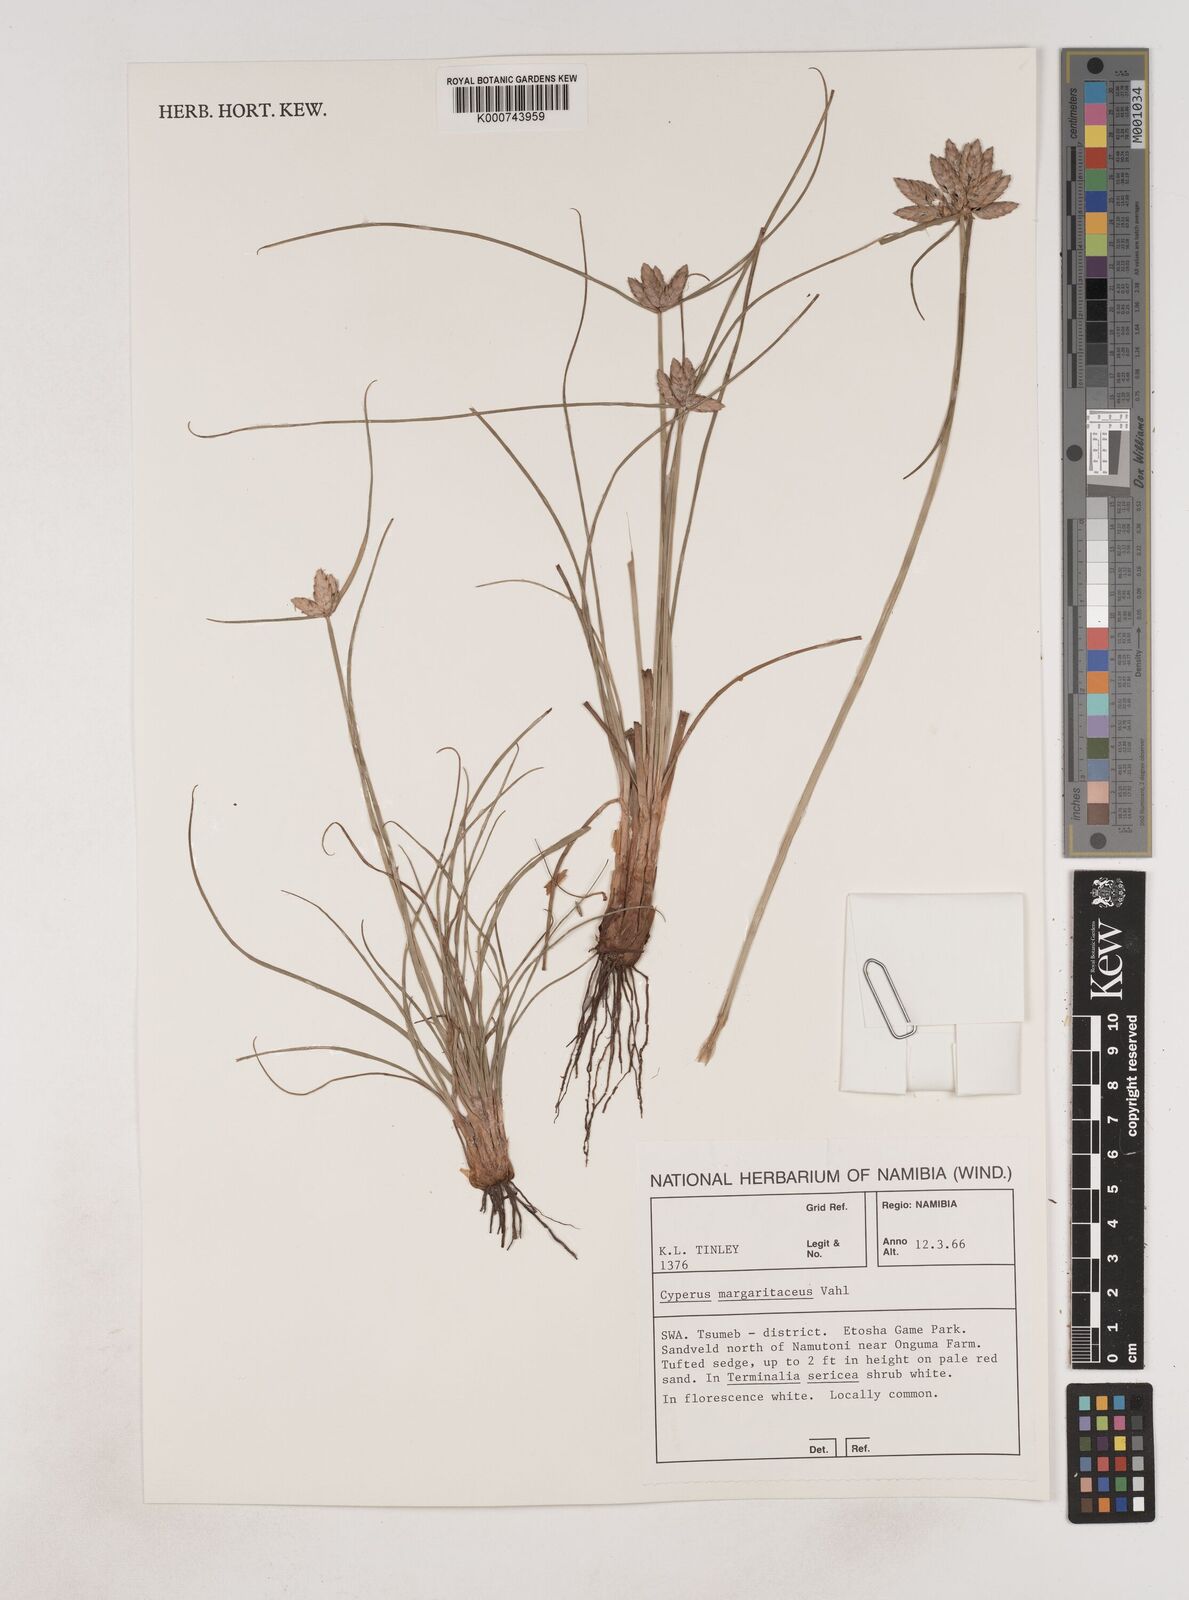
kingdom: Plantae
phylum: Tracheophyta
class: Liliopsida
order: Poales
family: Cyperaceae
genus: Cyperus
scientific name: Cyperus margaritaceus
